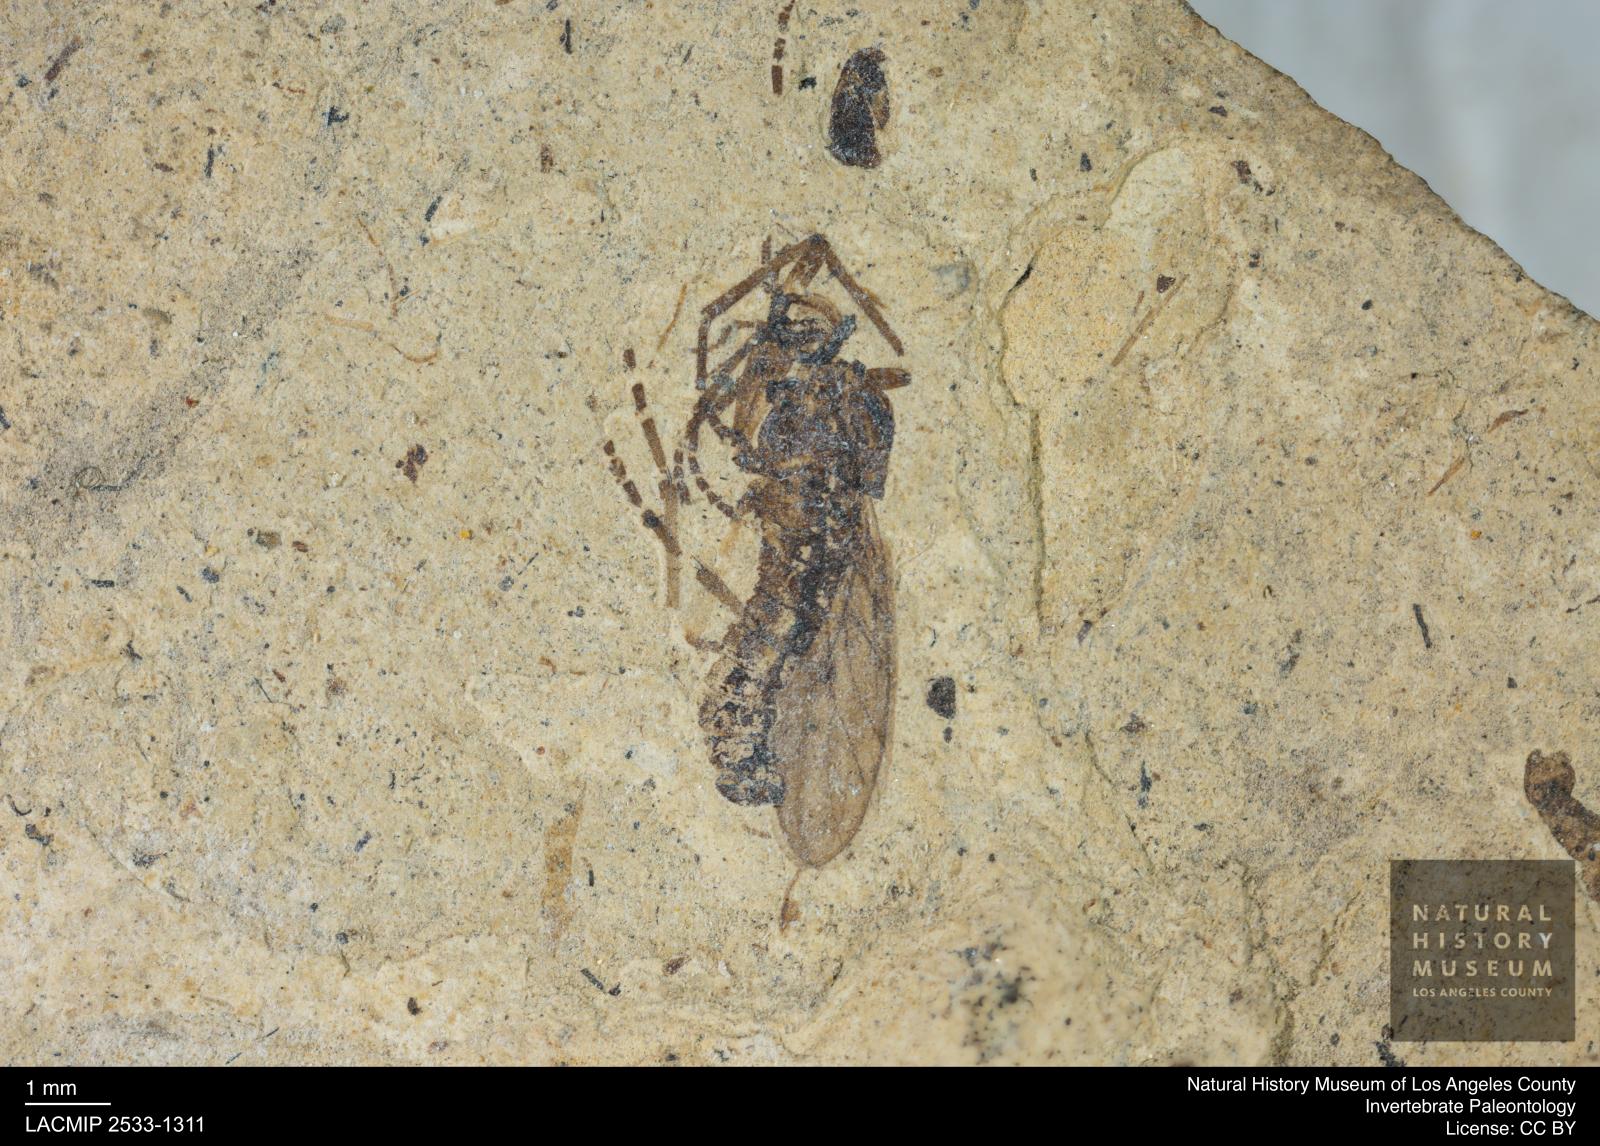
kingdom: Animalia
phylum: Arthropoda
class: Insecta
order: Diptera
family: Bibionidae
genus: Plecia
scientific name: Plecia
